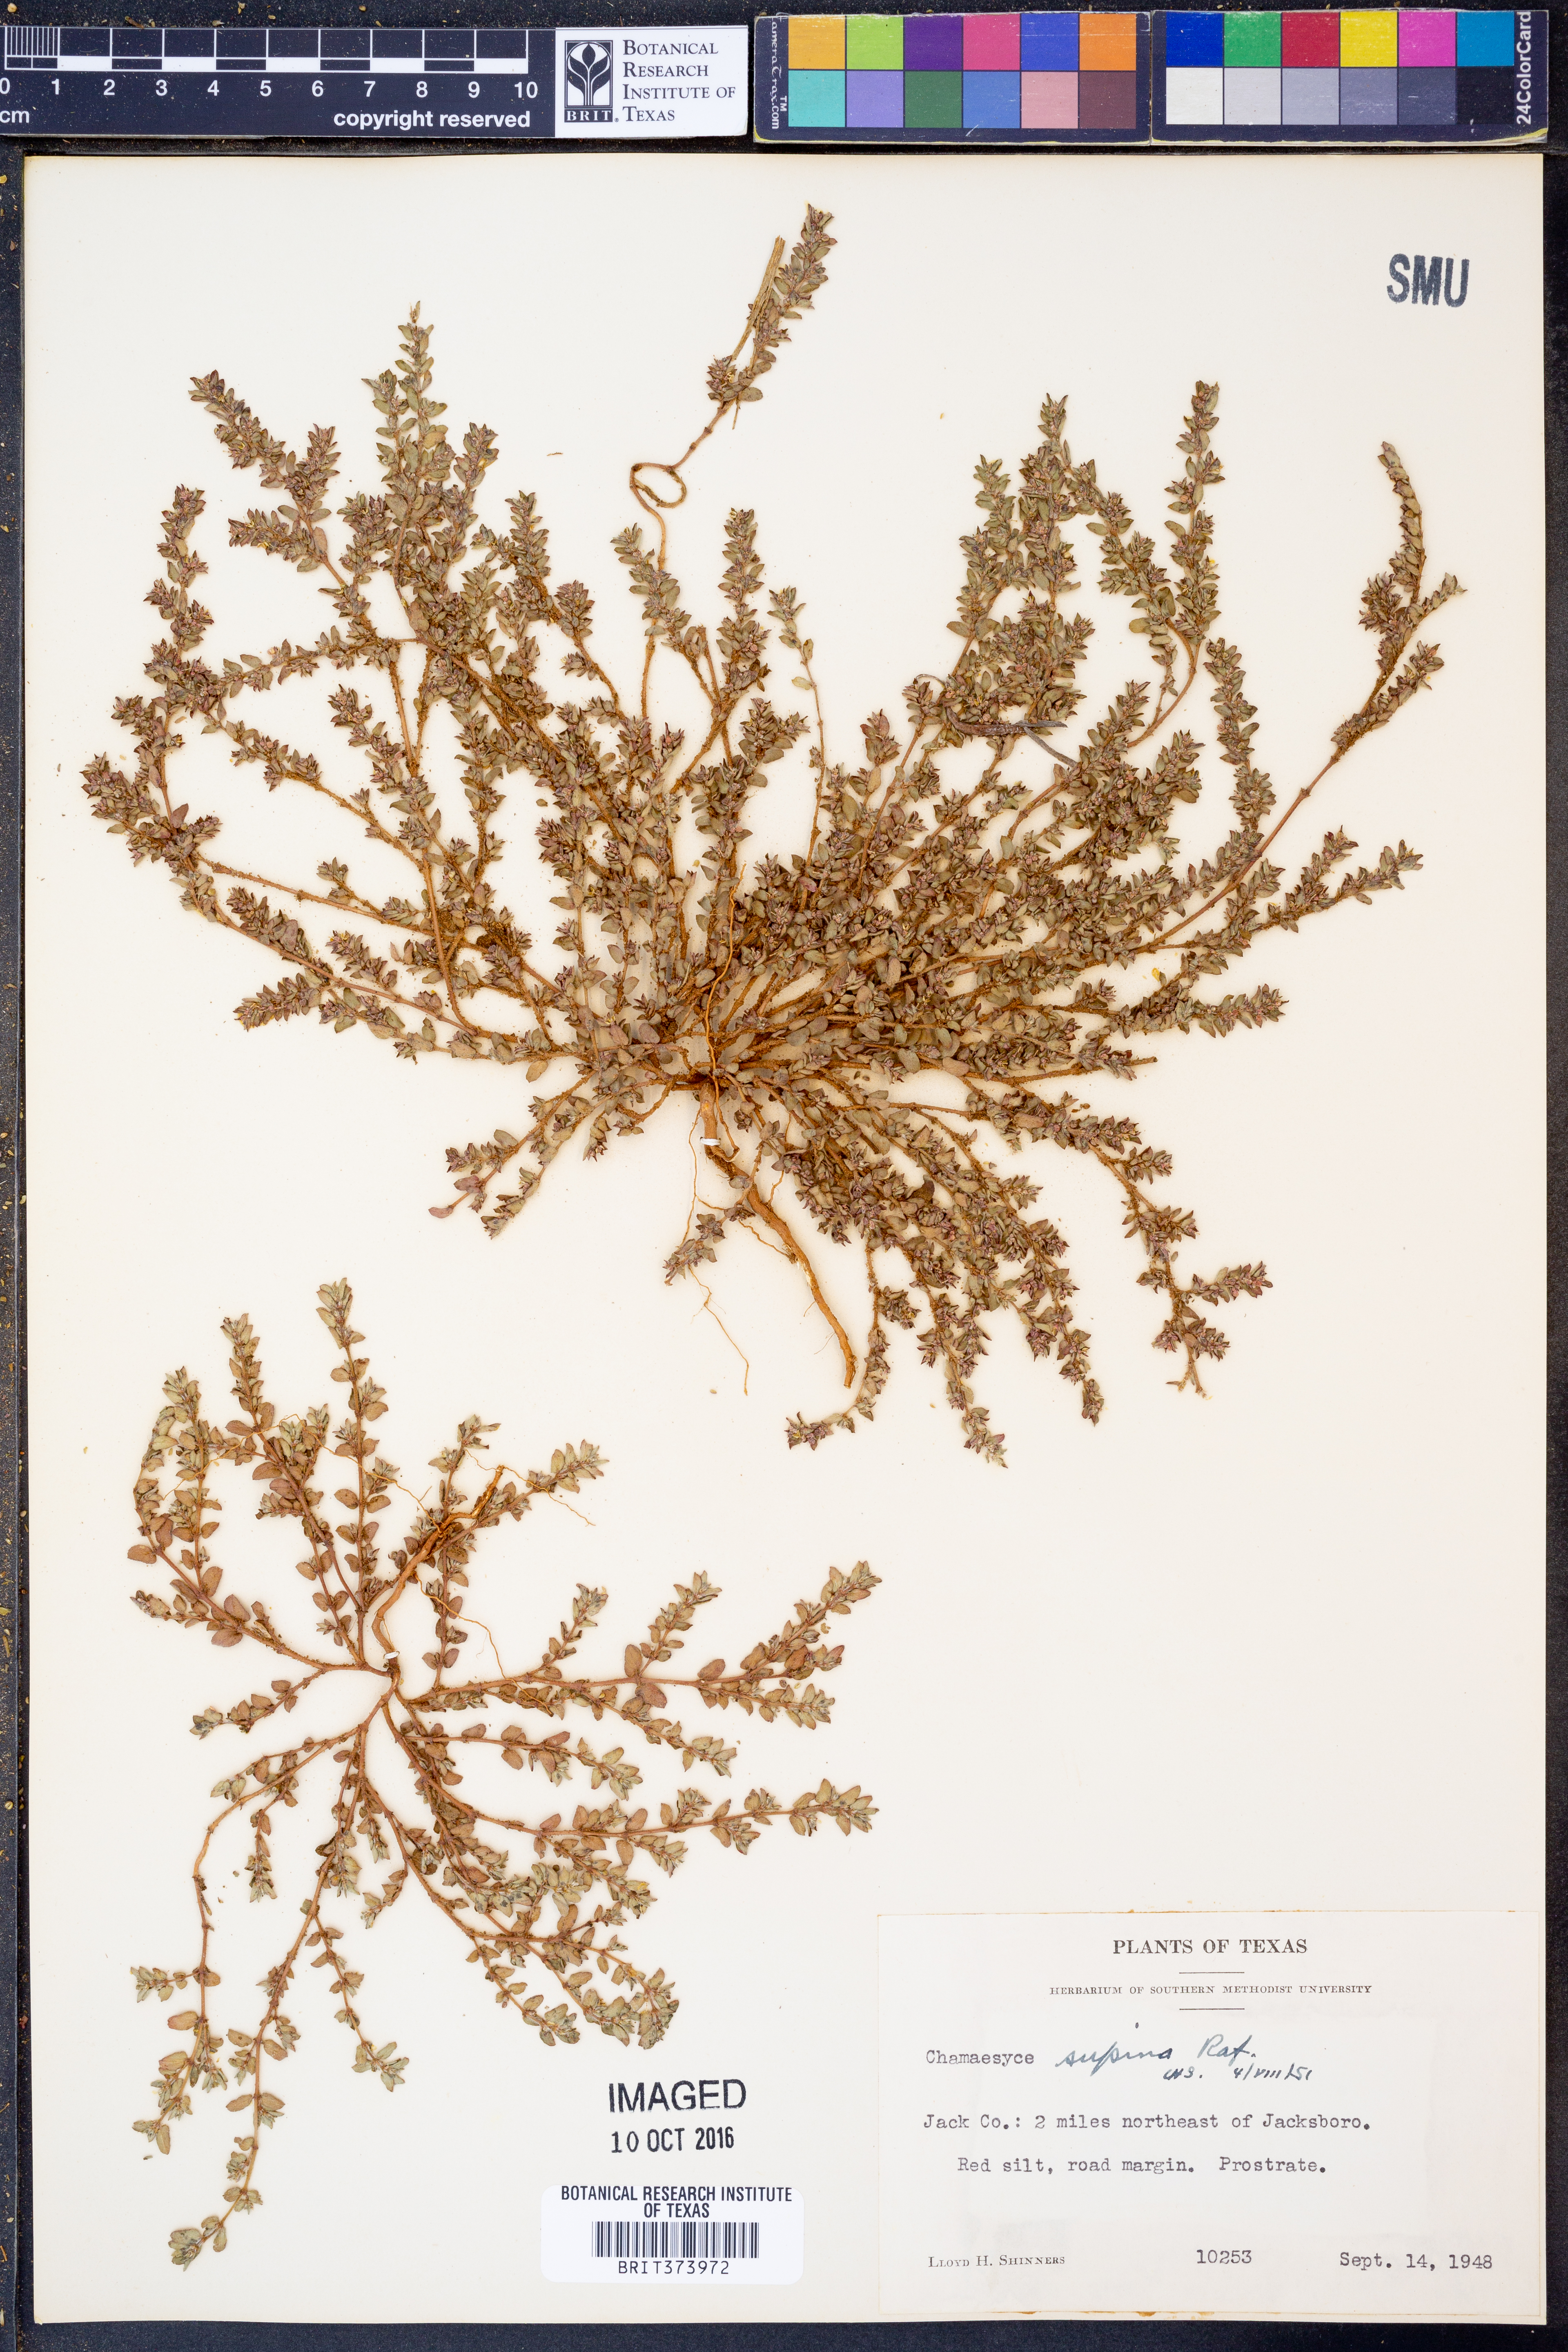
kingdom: Plantae
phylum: Tracheophyta
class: Magnoliopsida
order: Malpighiales
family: Euphorbiaceae
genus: Euphorbia
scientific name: Euphorbia maculata
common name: Spotted spurge
